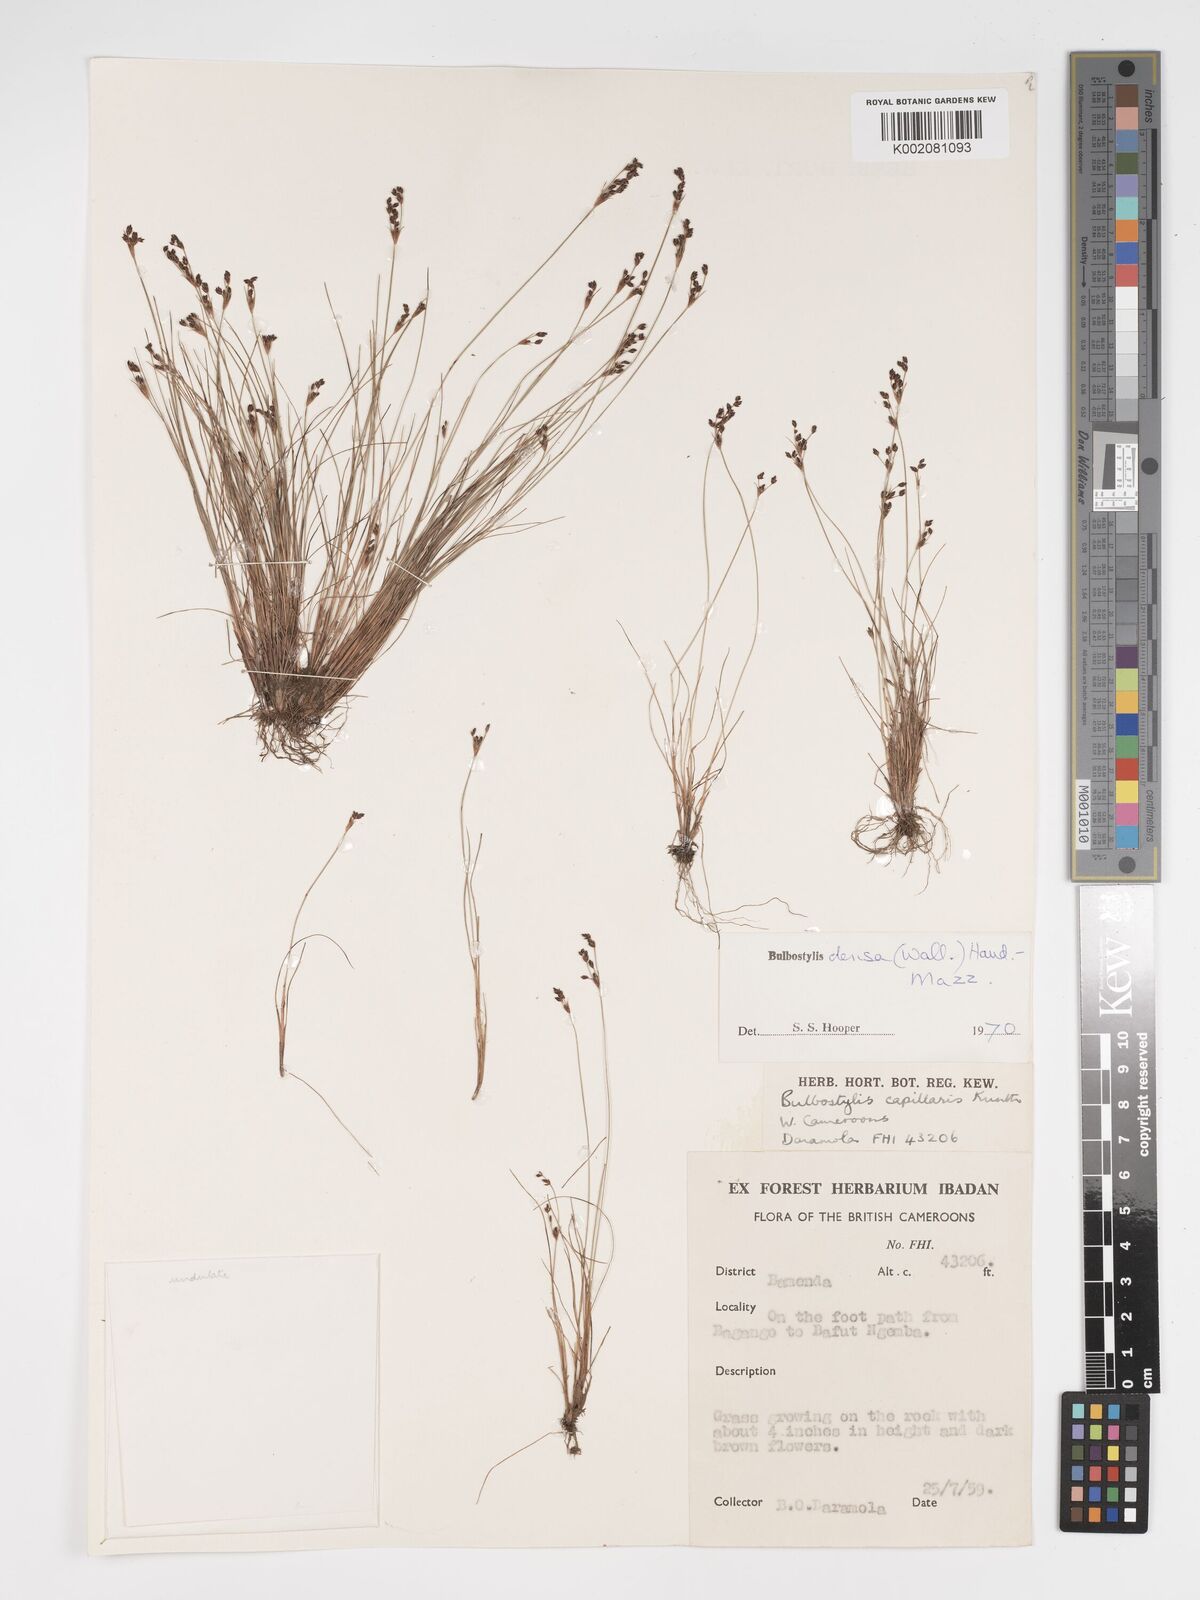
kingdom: Plantae
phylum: Tracheophyta
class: Liliopsida
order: Poales
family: Cyperaceae
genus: Bulbostylis
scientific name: Bulbostylis densa
